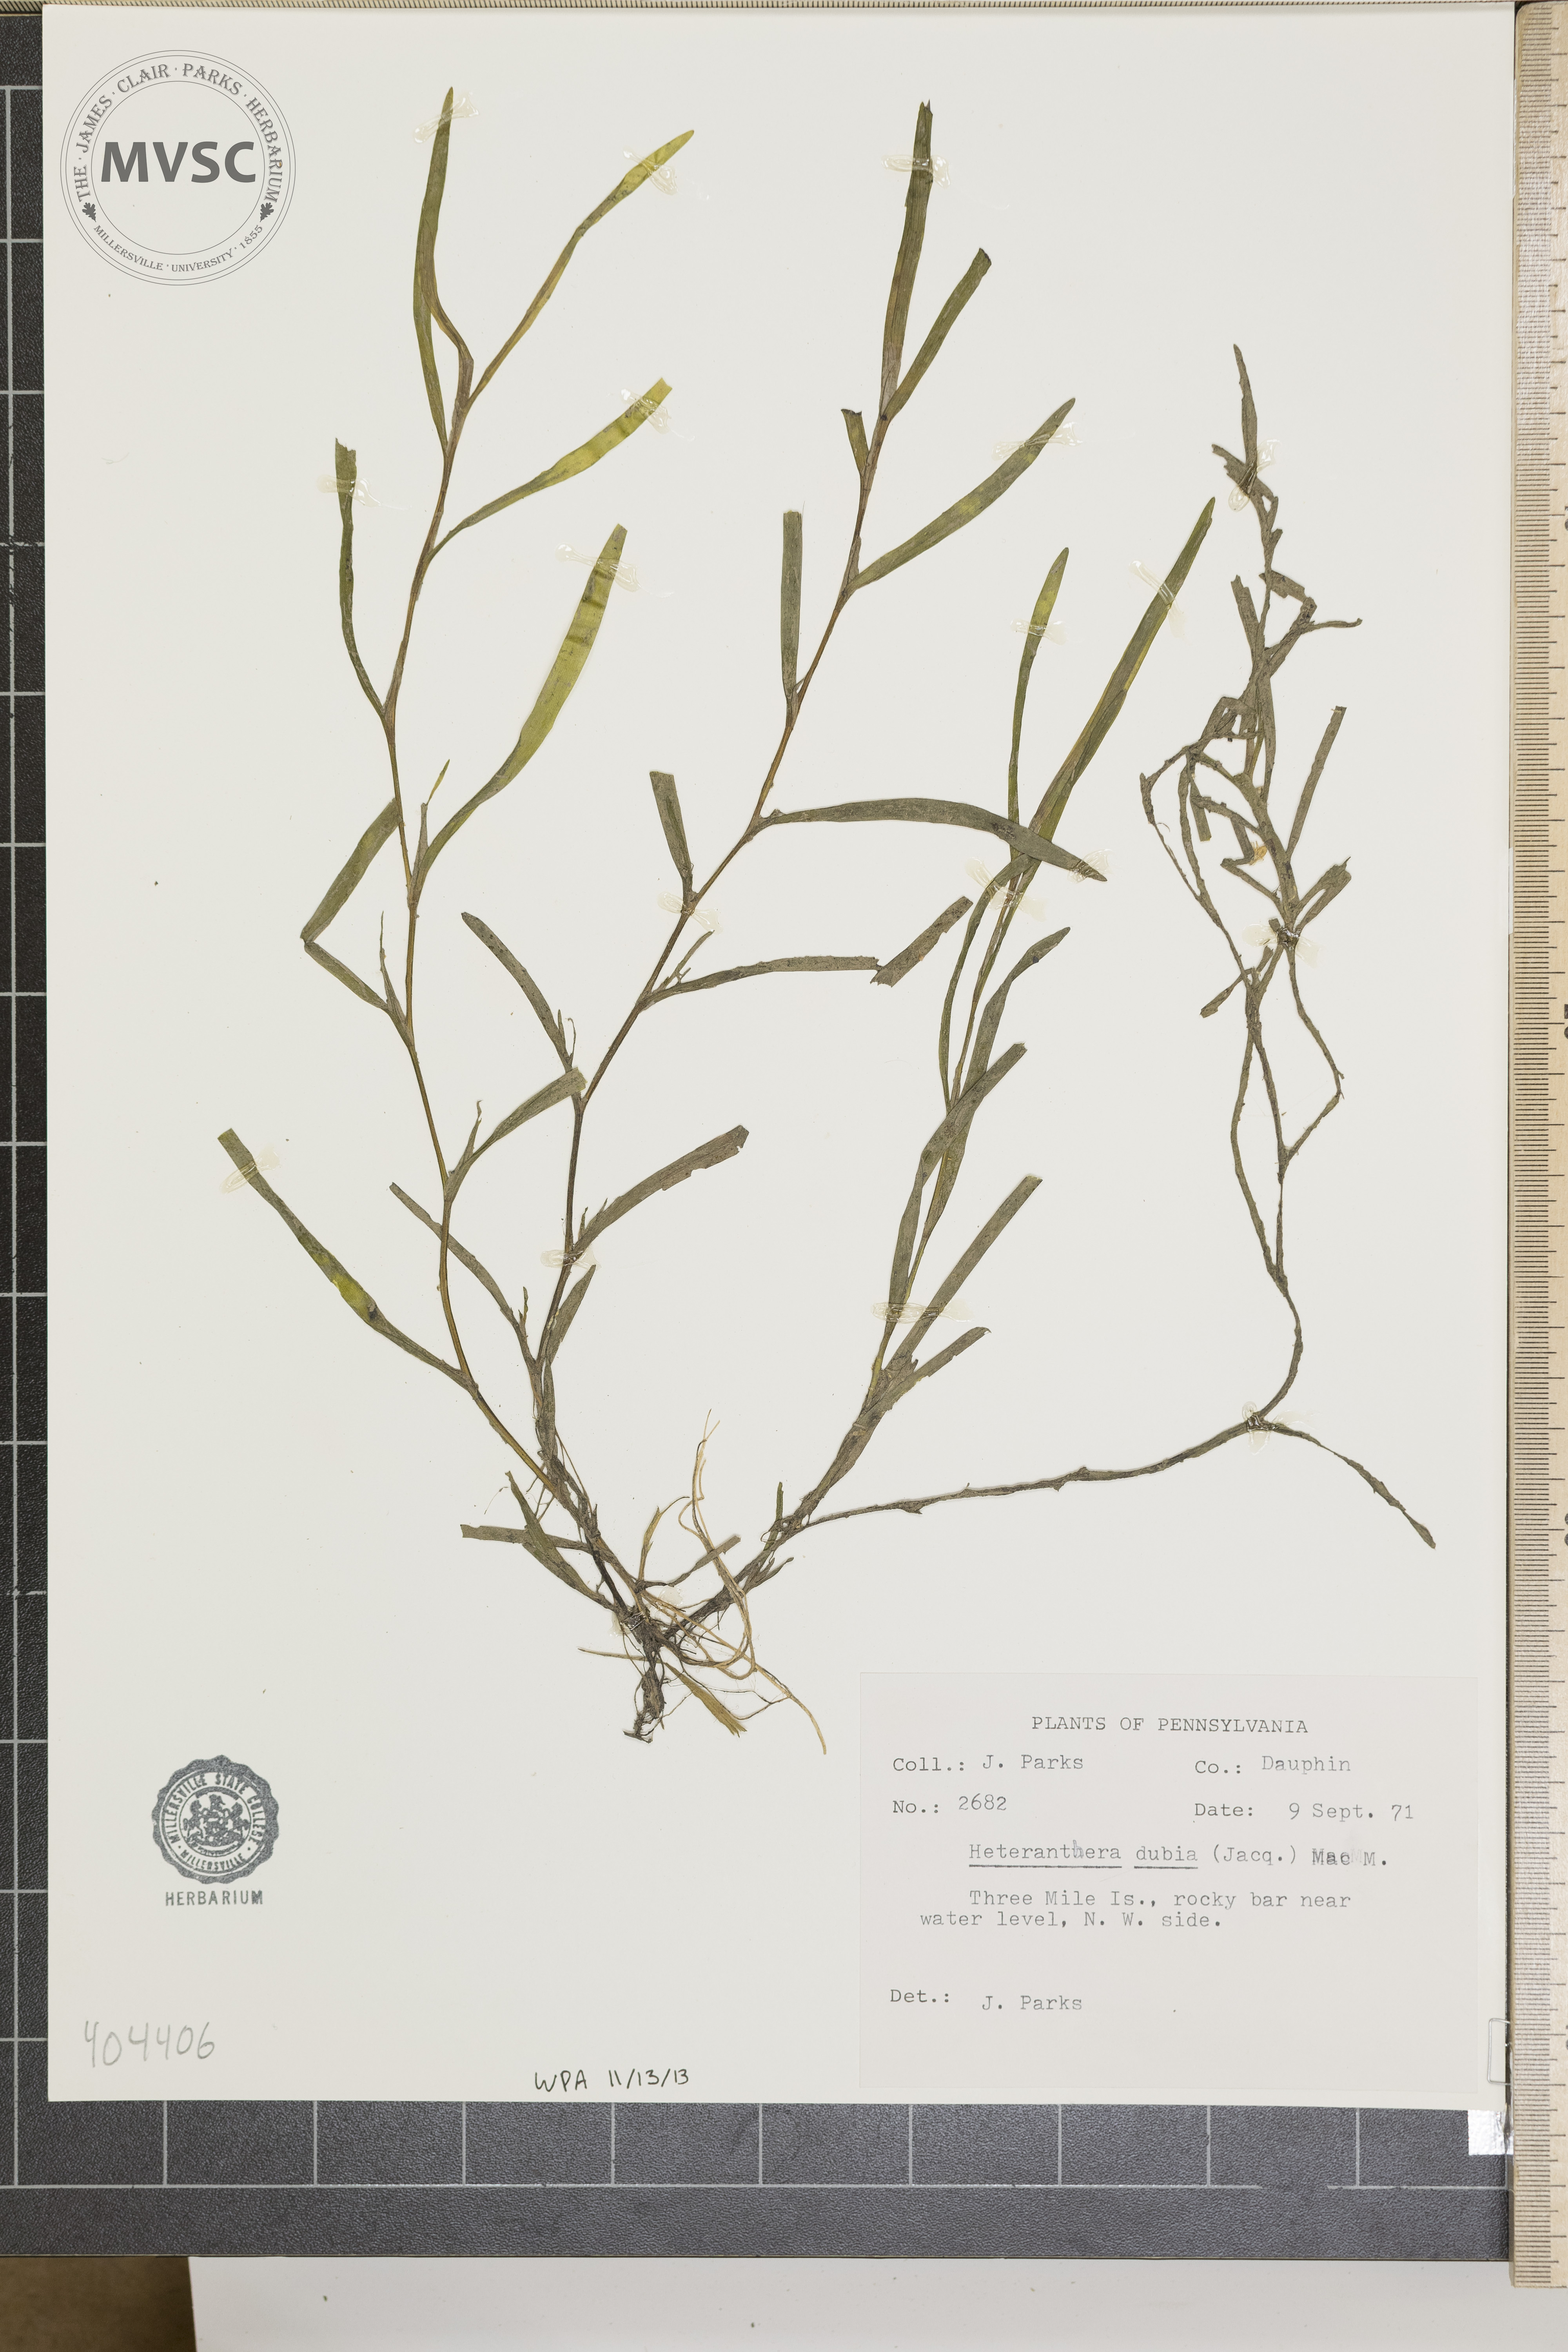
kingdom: Plantae
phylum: Tracheophyta
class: Liliopsida
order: Commelinales
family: Pontederiaceae
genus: Heteranthera
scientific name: Heteranthera dubia
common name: Grass-leaved mud plantain
